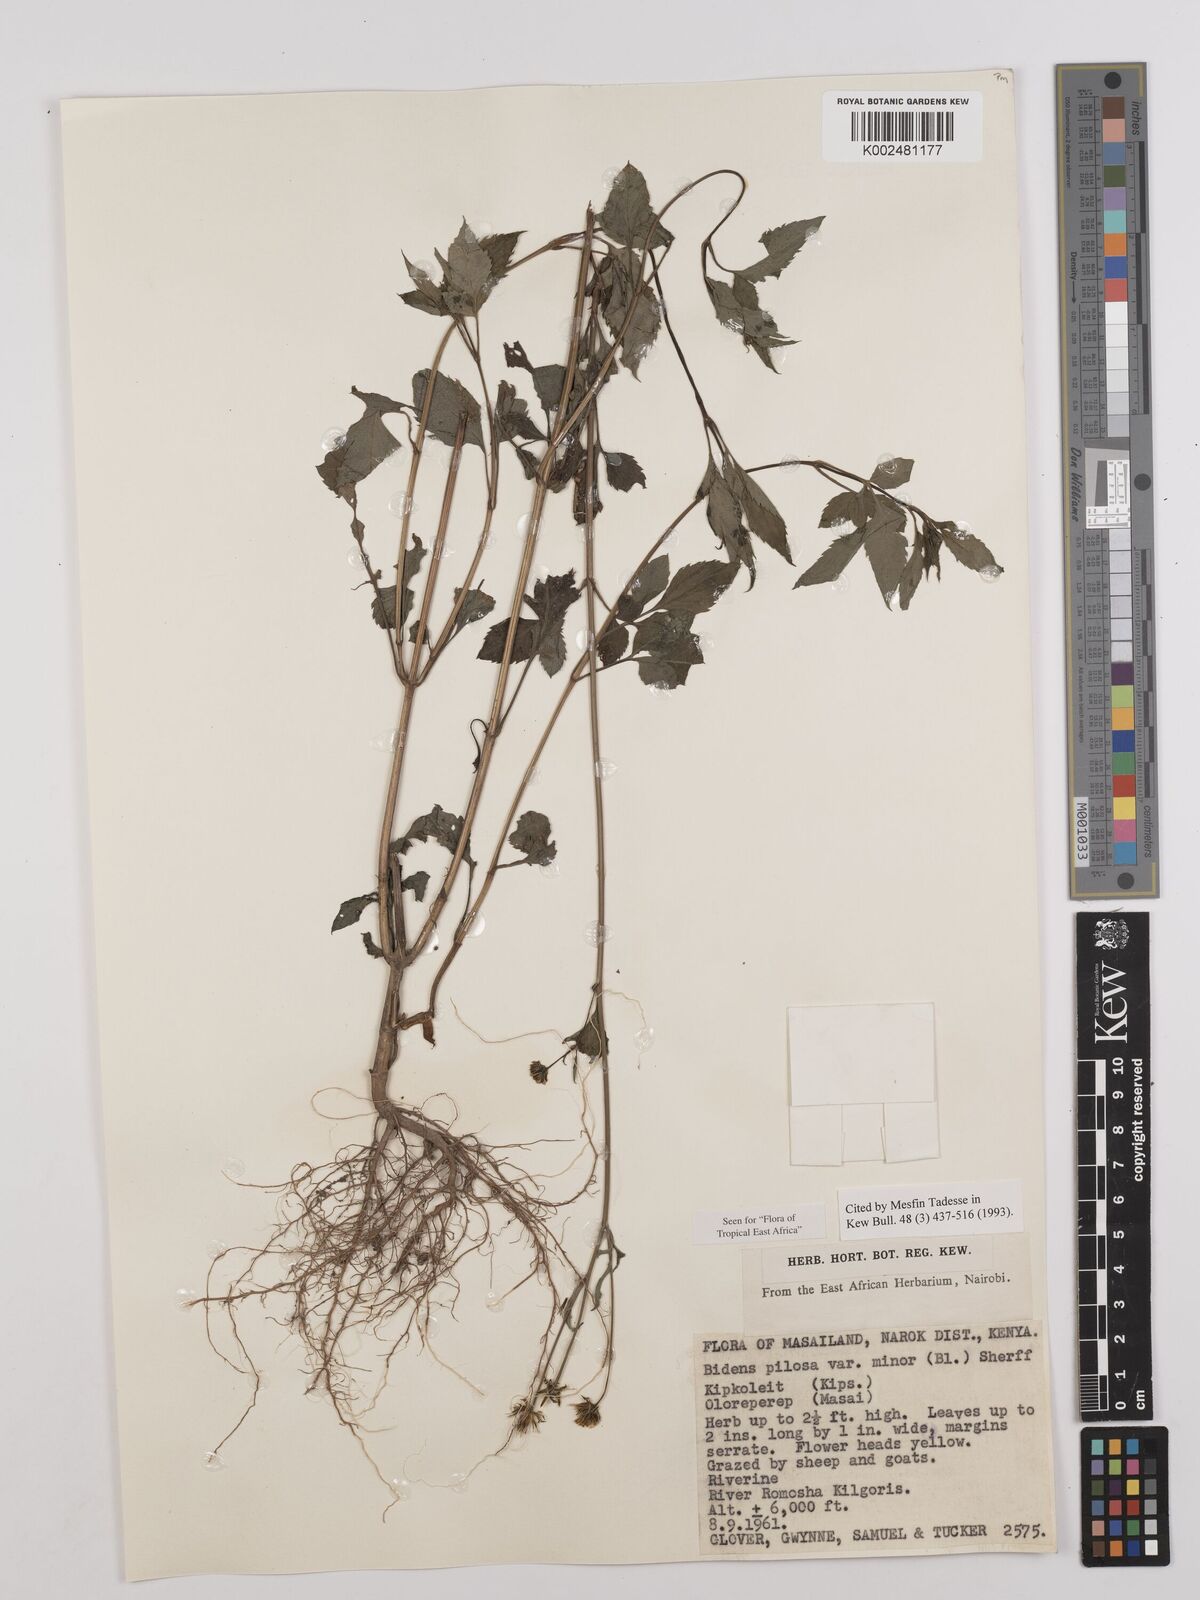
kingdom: Plantae
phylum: Tracheophyta
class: Magnoliopsida
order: Asterales
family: Asteraceae
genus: Bidens
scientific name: Bidens pilosa
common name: Black-jack
